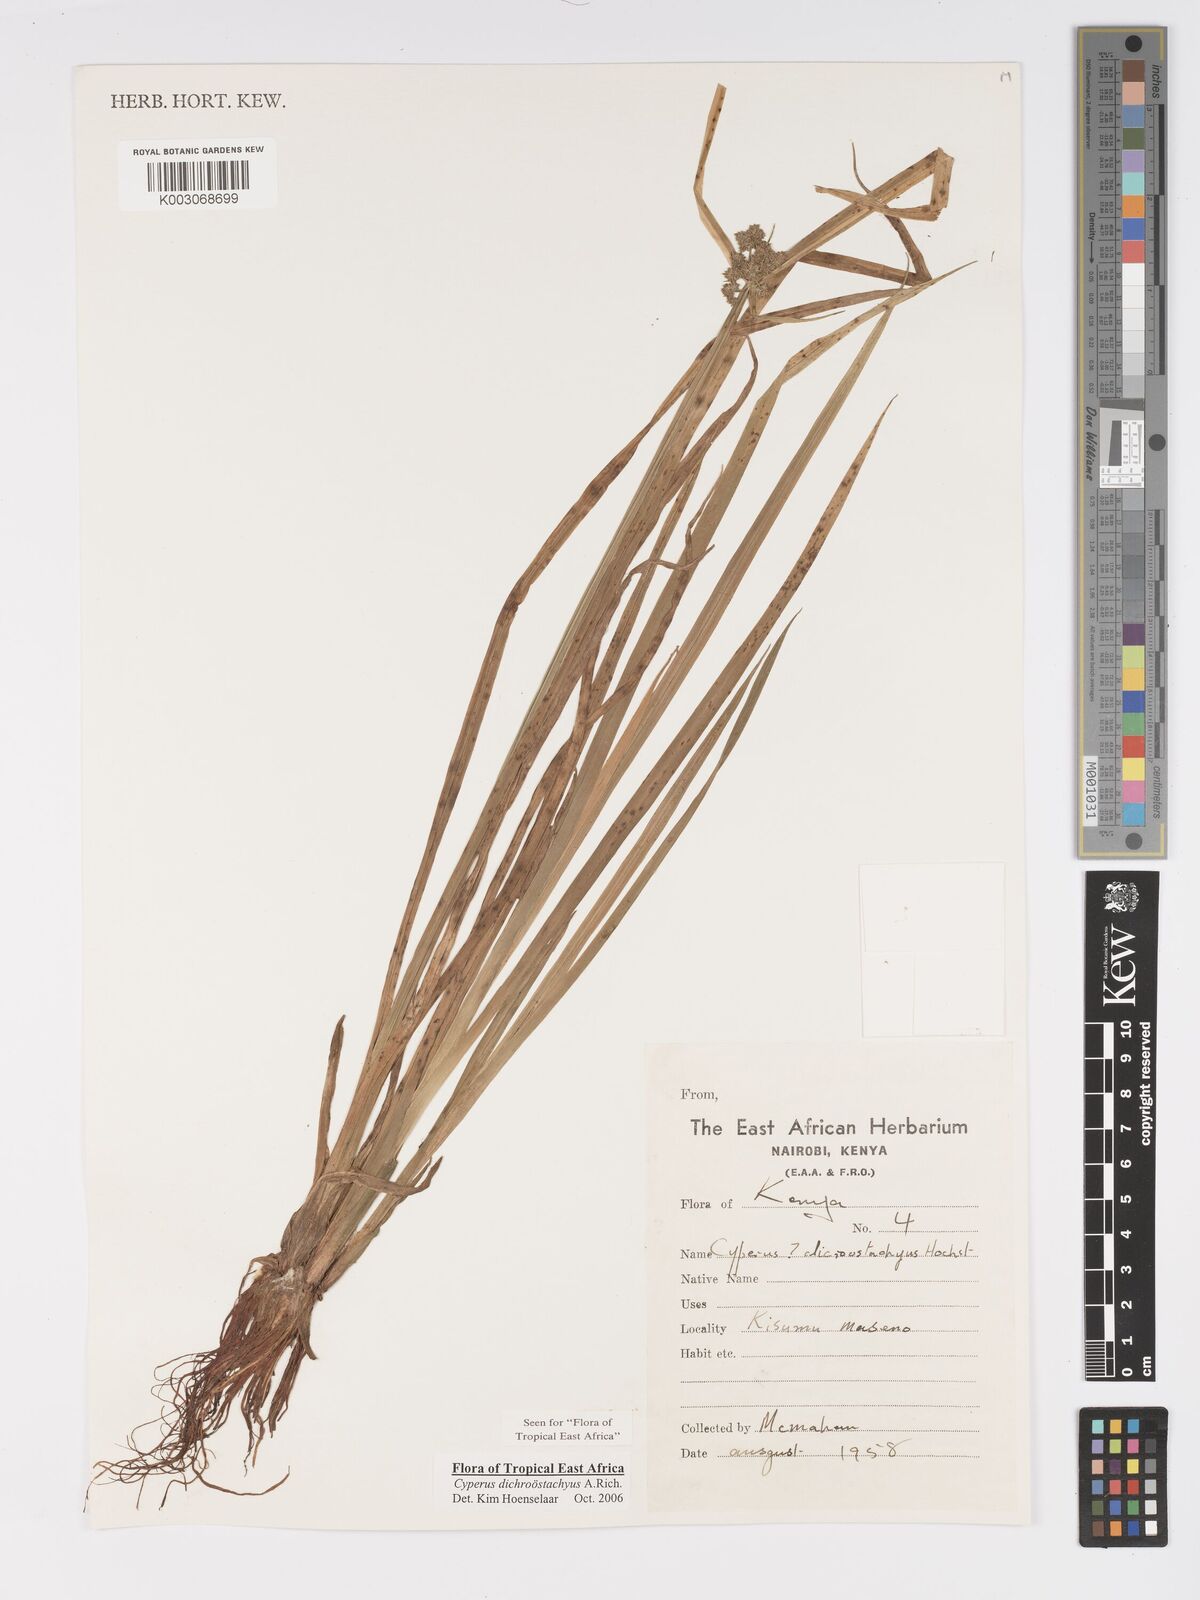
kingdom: Plantae
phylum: Tracheophyta
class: Liliopsida
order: Poales
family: Cyperaceae
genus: Cyperus
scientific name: Cyperus dichrostachyus
